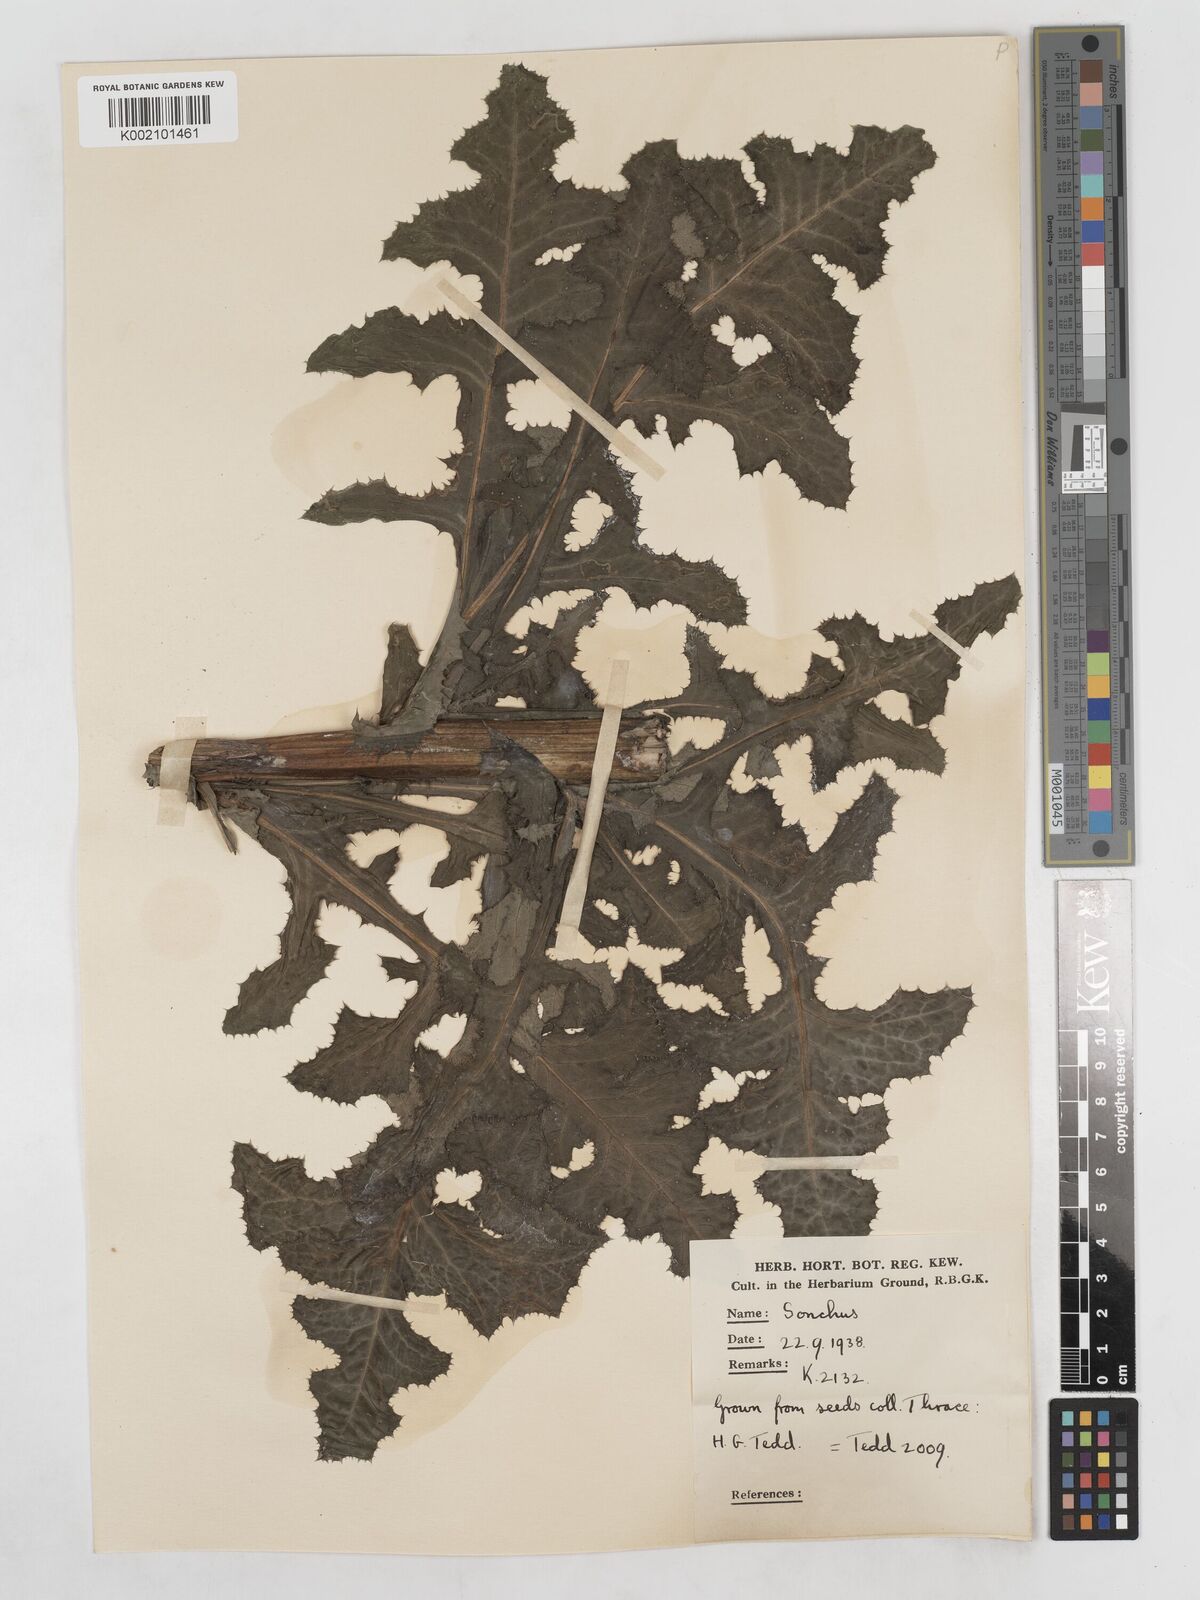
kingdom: Plantae
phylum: Tracheophyta
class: Magnoliopsida
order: Asterales
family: Asteraceae
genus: Sonchus
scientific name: Sonchus arvensis
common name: Perennial sow-thistle
